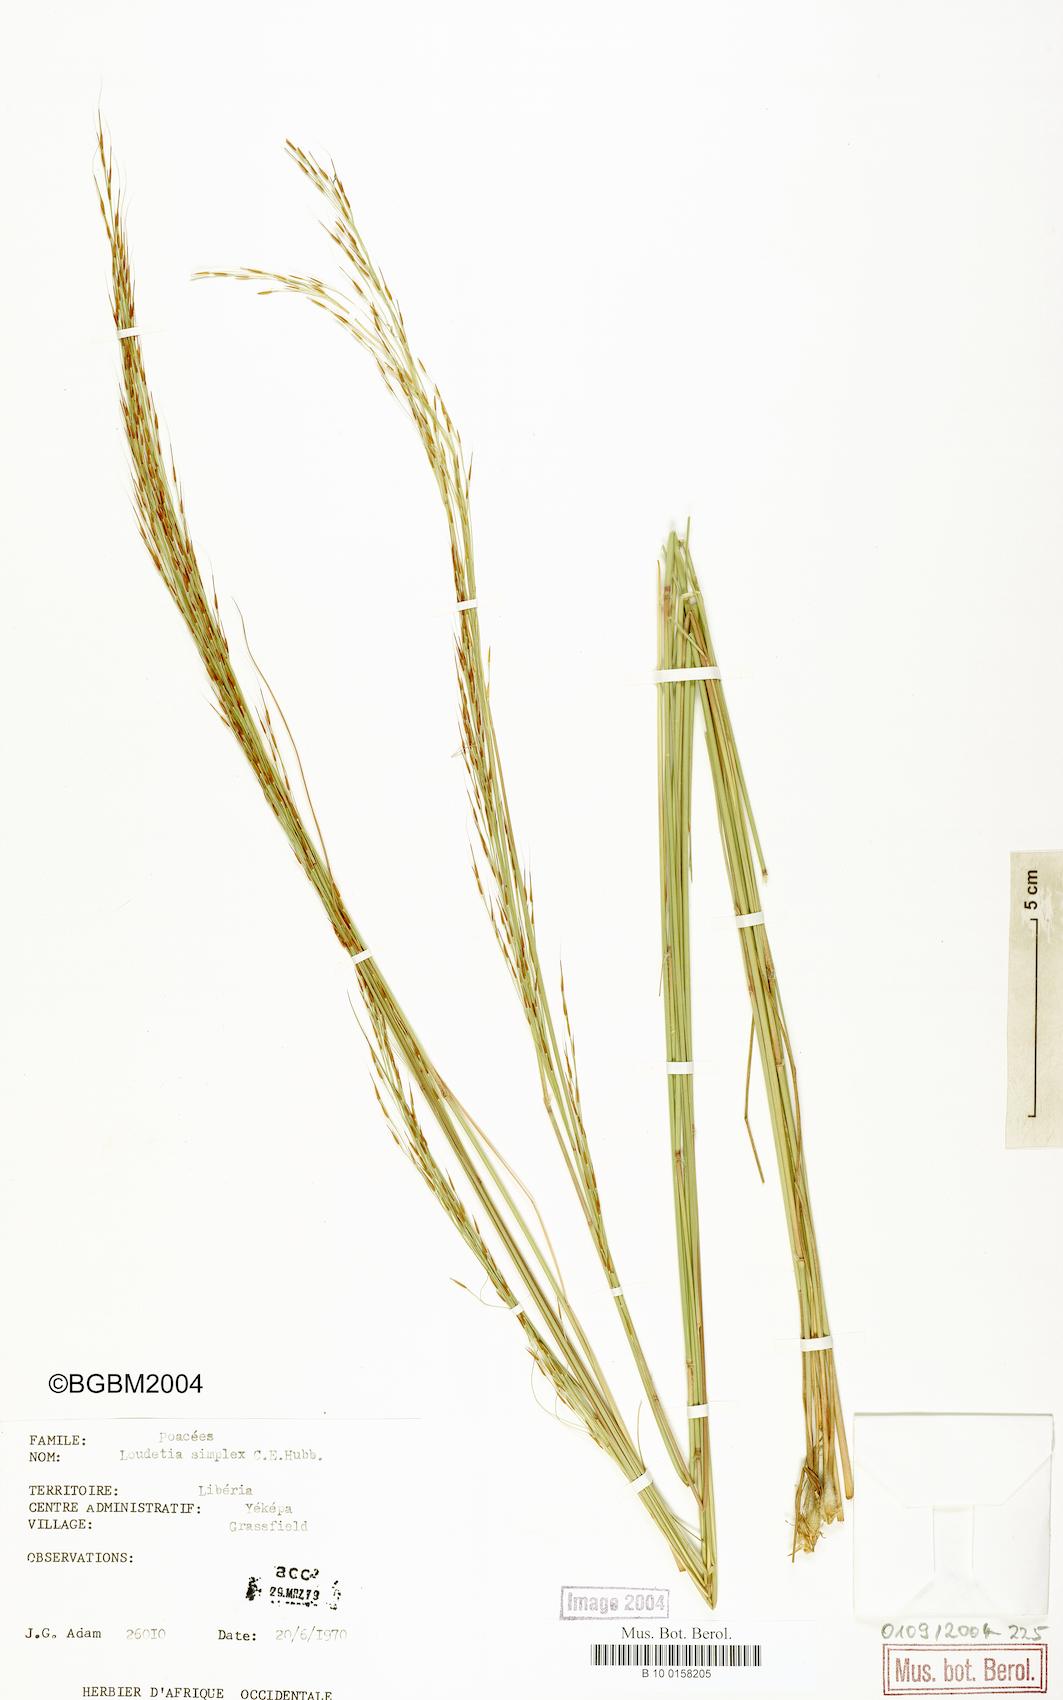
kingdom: Plantae
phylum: Tracheophyta
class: Liliopsida
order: Poales
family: Poaceae
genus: Loudetia
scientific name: Loudetia simplex
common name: Common russet grass
